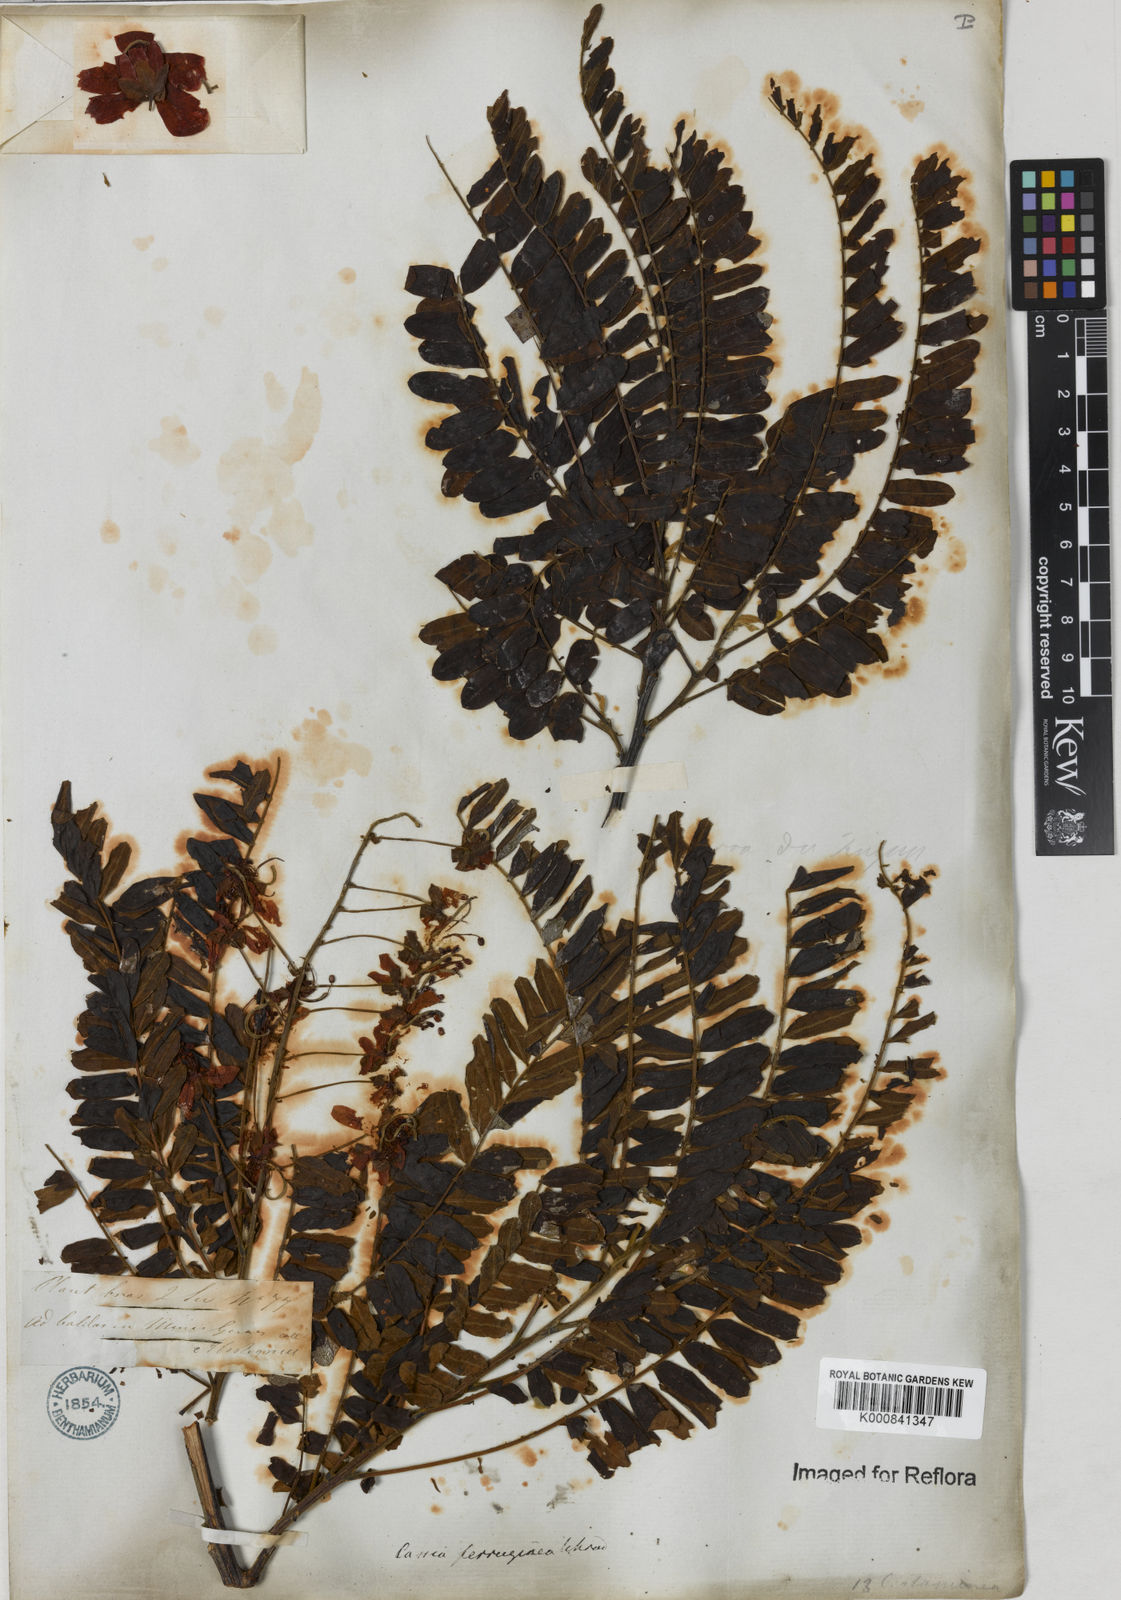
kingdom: Plantae
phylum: Tracheophyta
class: Magnoliopsida
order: Fabales
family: Fabaceae
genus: Cassia
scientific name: Cassia ferruginea
